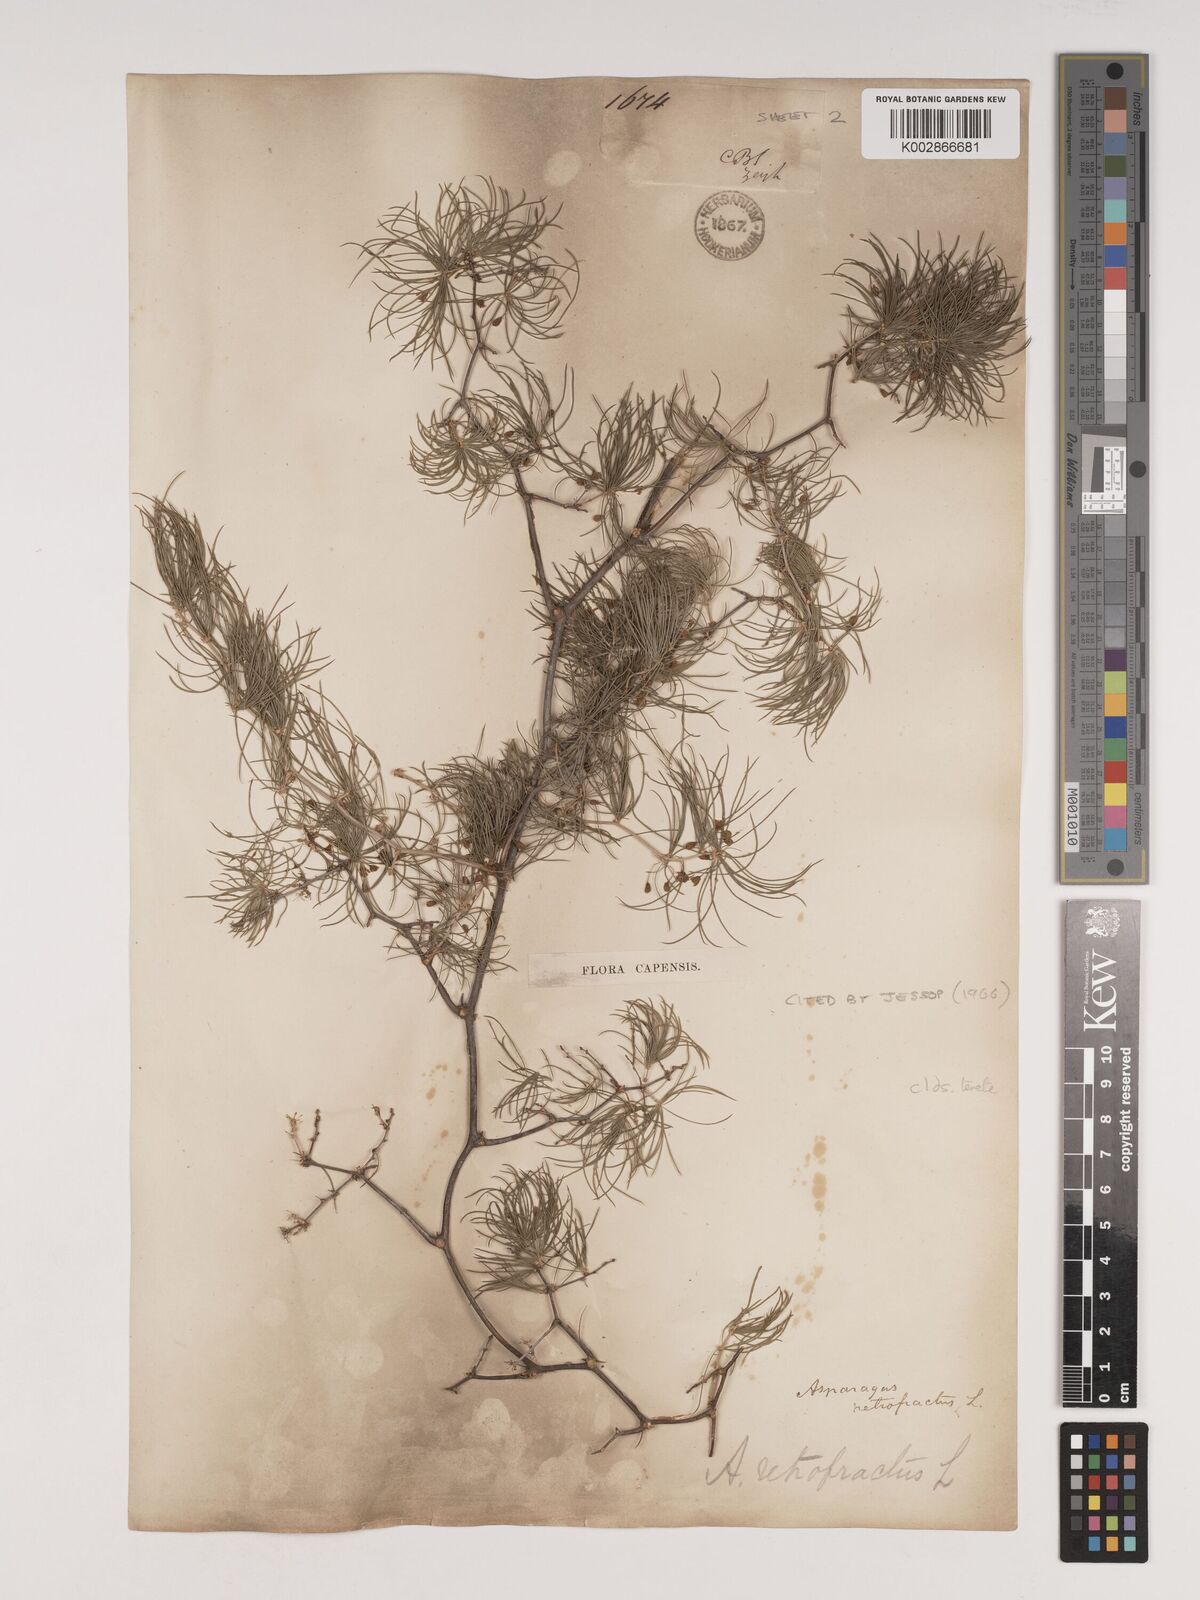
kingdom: Plantae
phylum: Tracheophyta
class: Liliopsida
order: Asparagales
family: Asparagaceae
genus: Asparagus
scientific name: Asparagus retrofractus
